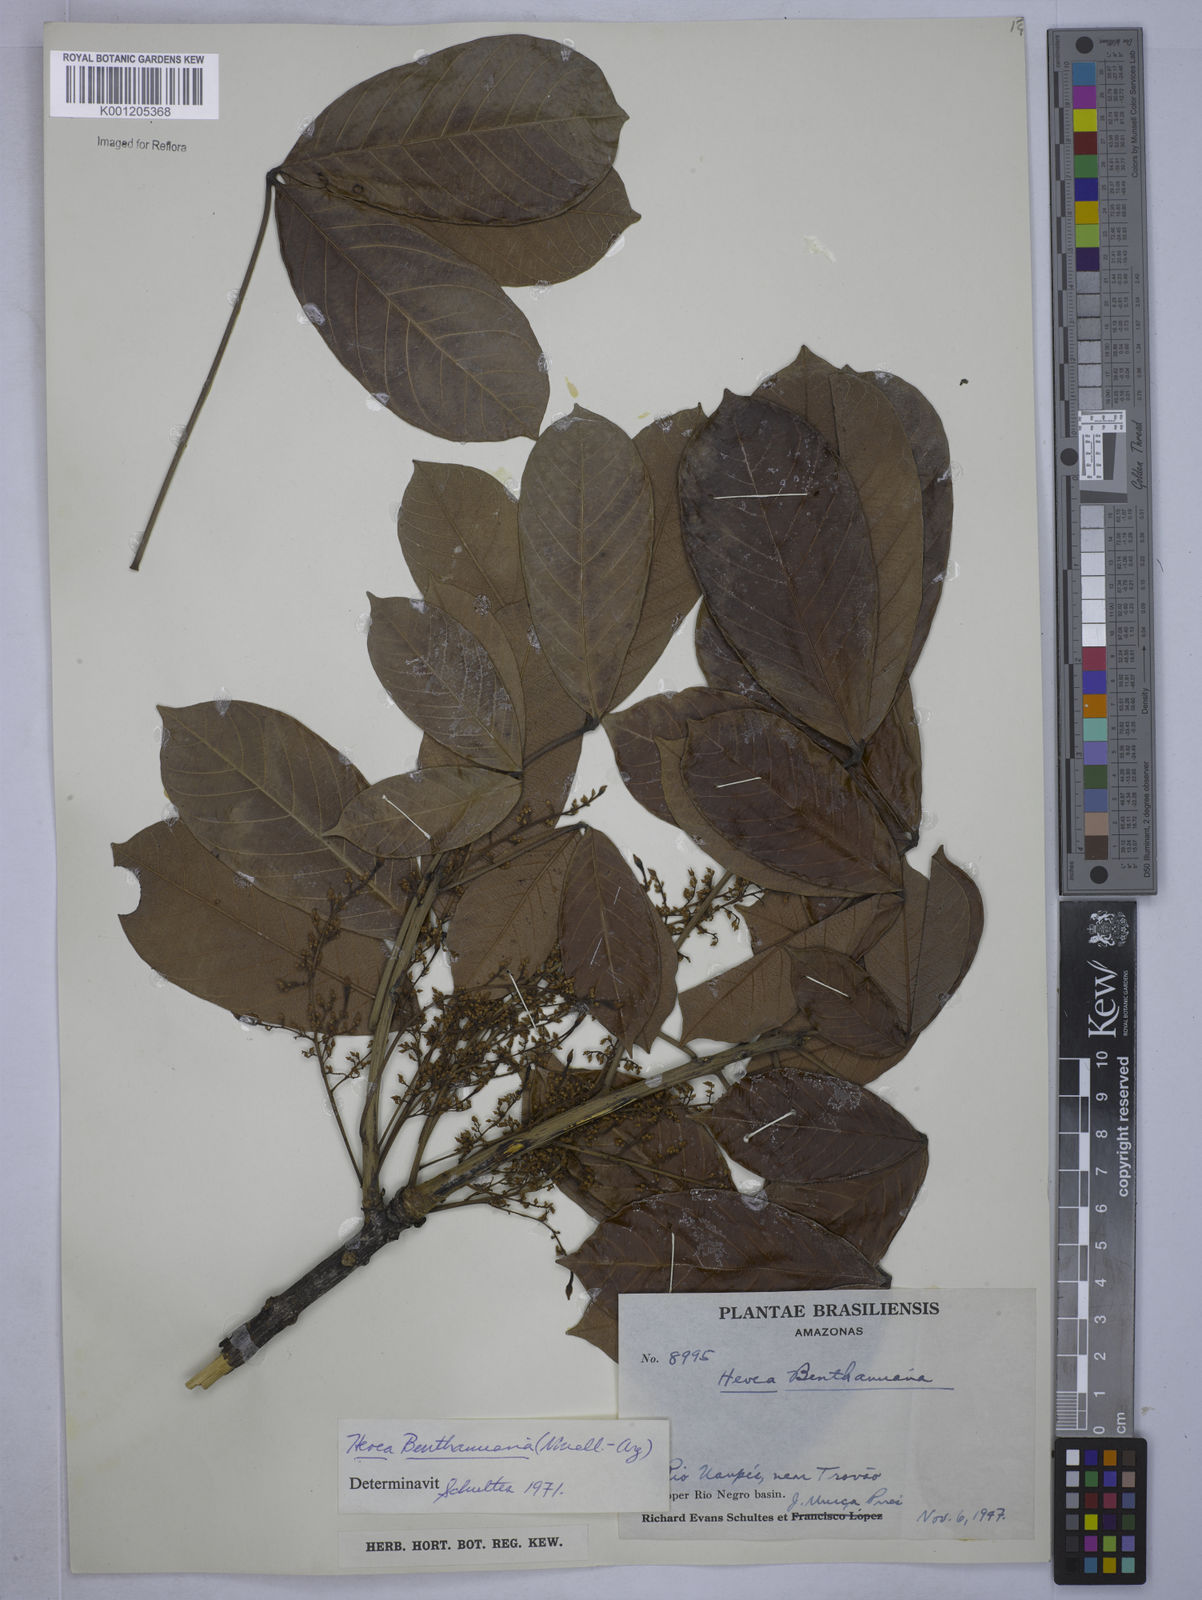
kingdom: Plantae
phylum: Tracheophyta
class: Magnoliopsida
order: Malpighiales
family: Euphorbiaceae
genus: Hevea
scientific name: Hevea
